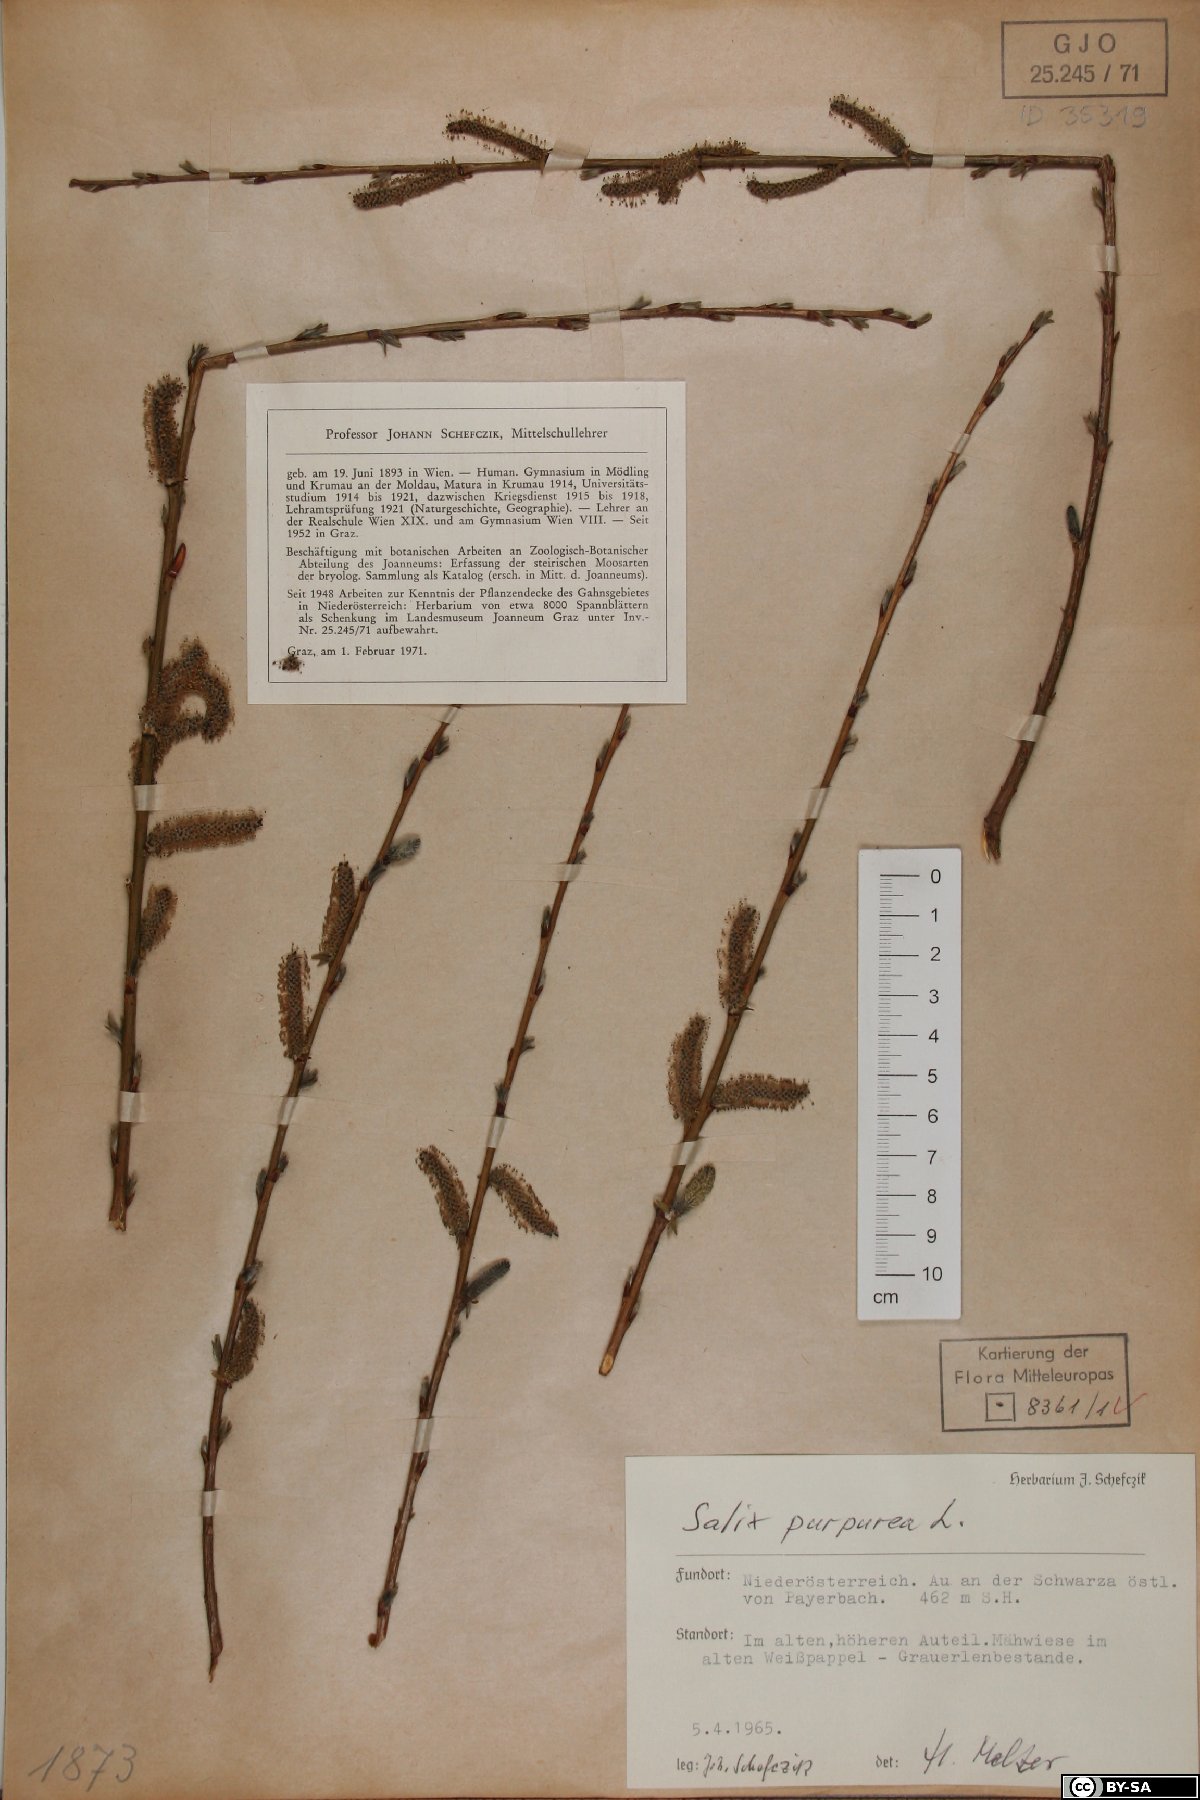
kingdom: Plantae
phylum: Tracheophyta
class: Magnoliopsida
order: Malpighiales
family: Salicaceae
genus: Salix
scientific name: Salix purpurea
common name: Purple willow
